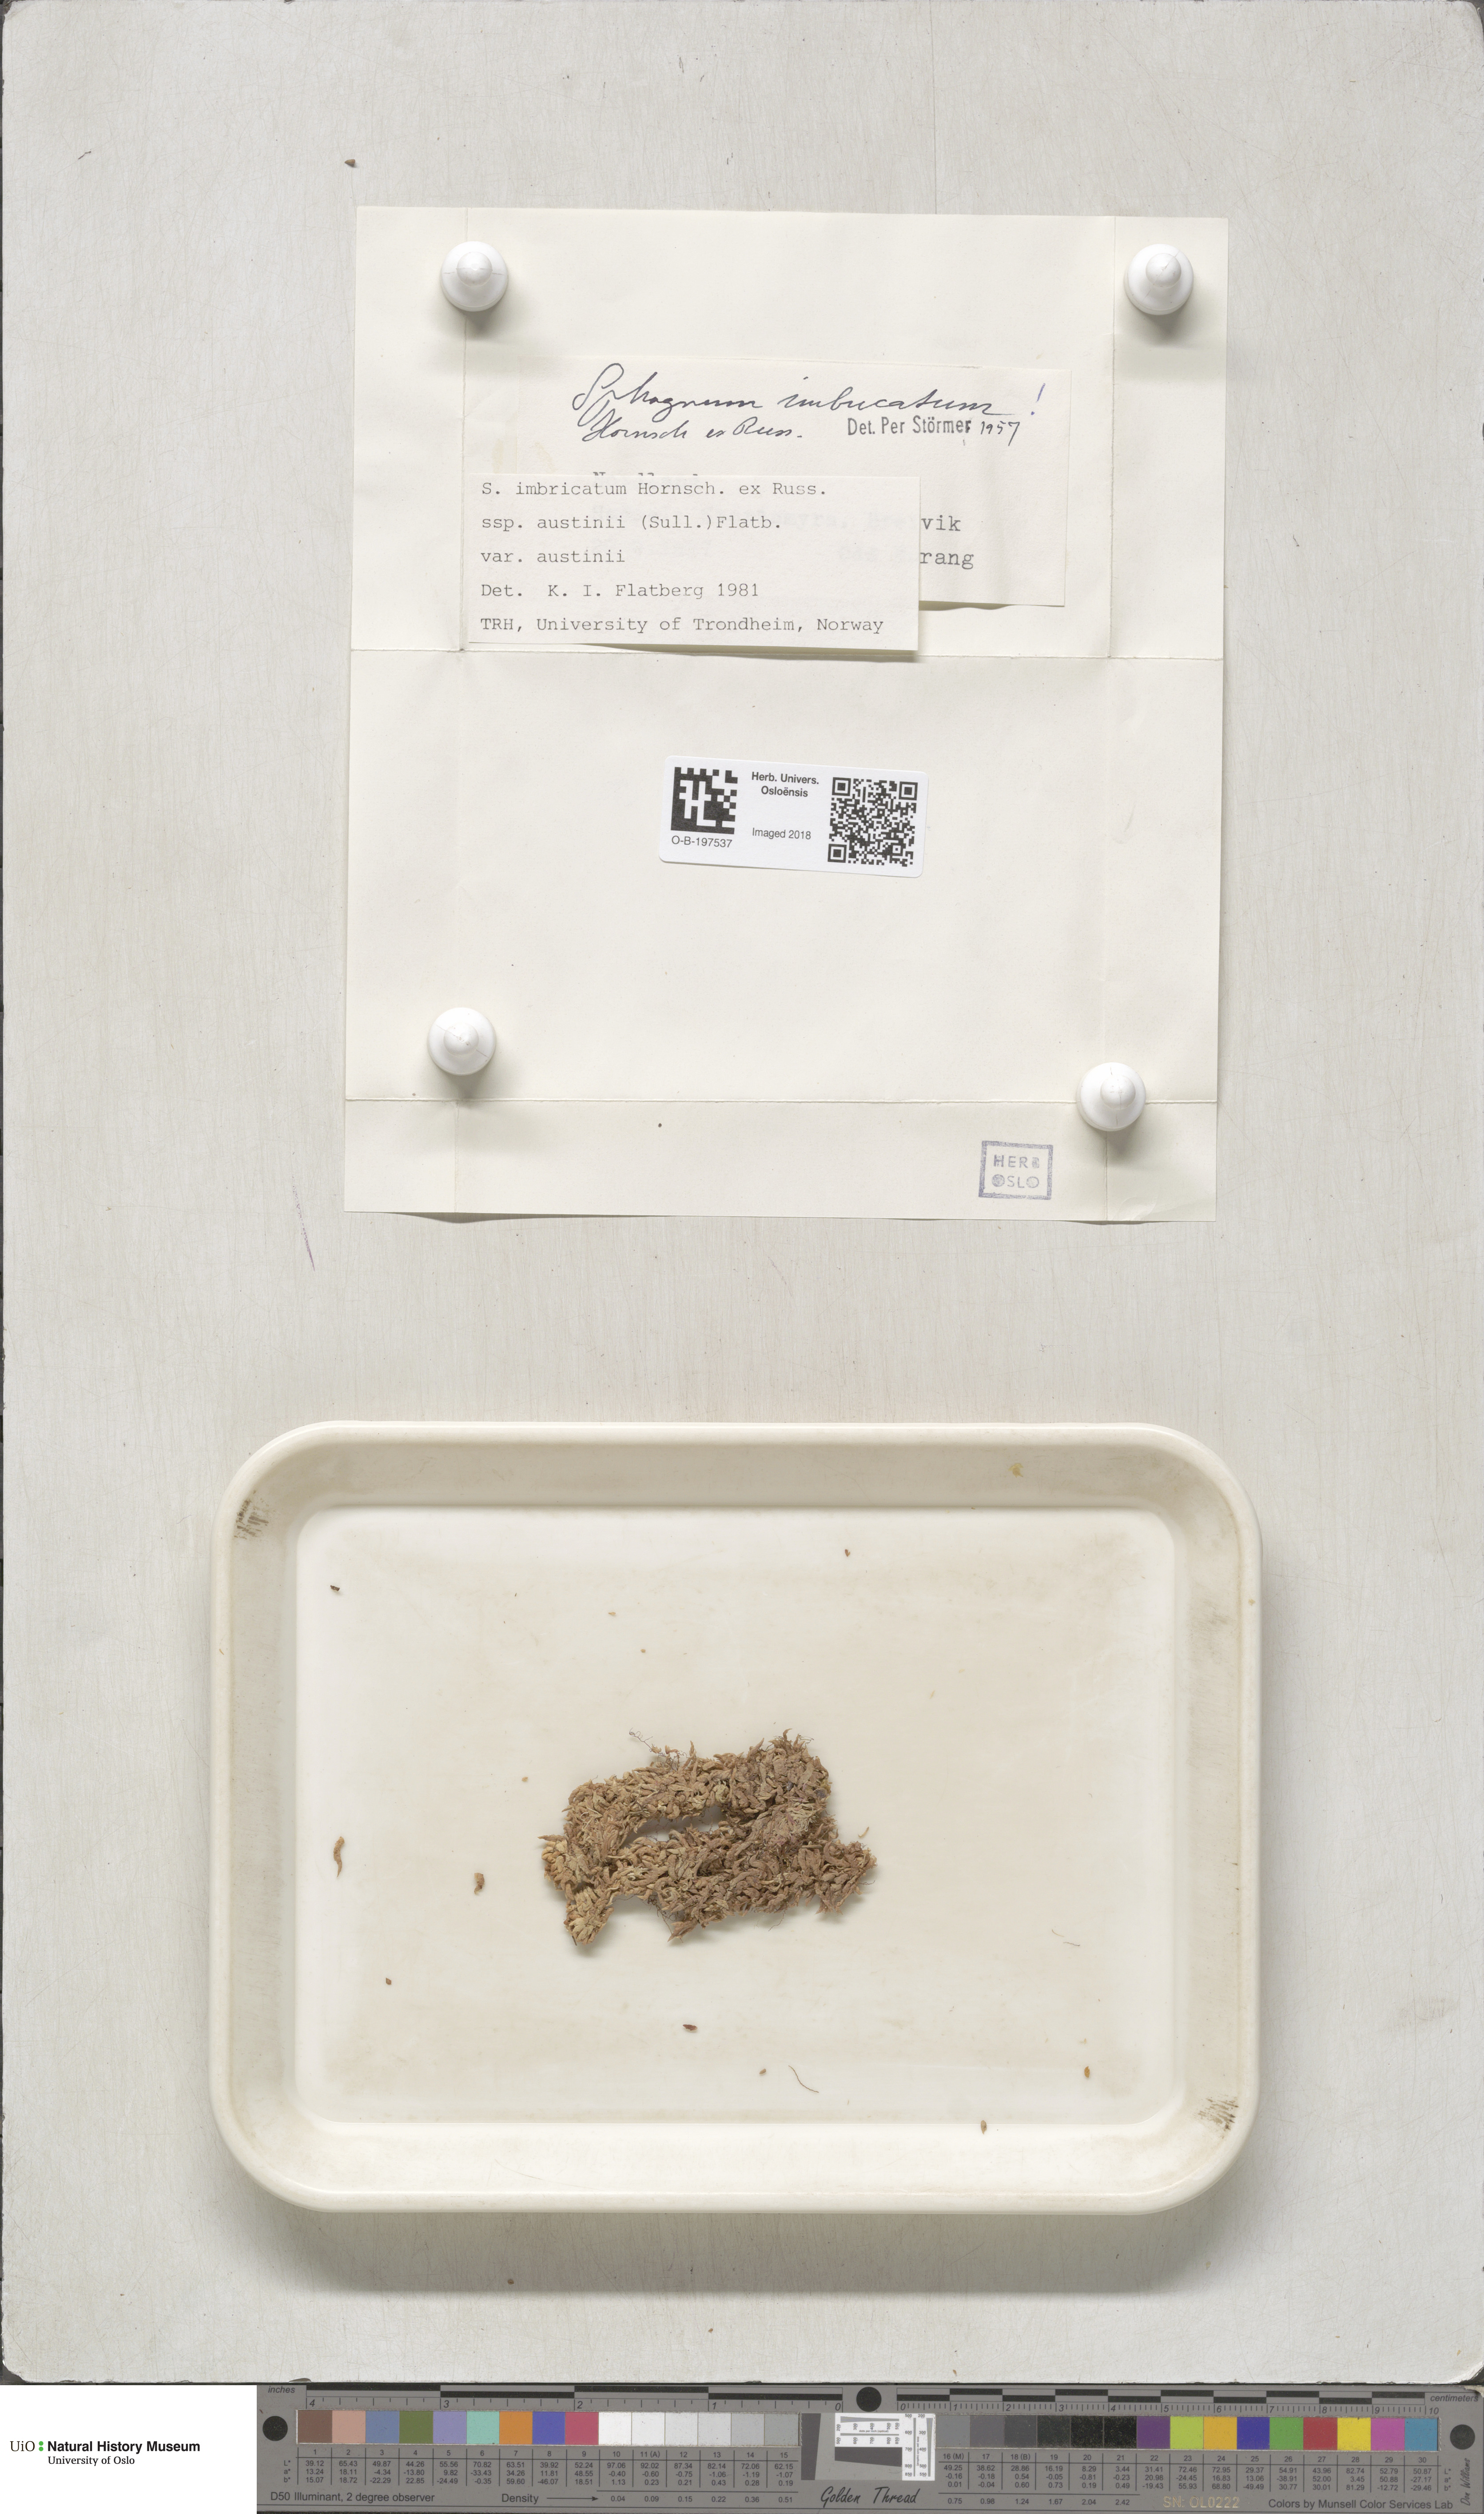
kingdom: Plantae
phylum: Bryophyta
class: Sphagnopsida
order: Sphagnales
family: Sphagnaceae
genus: Sphagnum
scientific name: Sphagnum austinii
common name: Austin's peat moss
